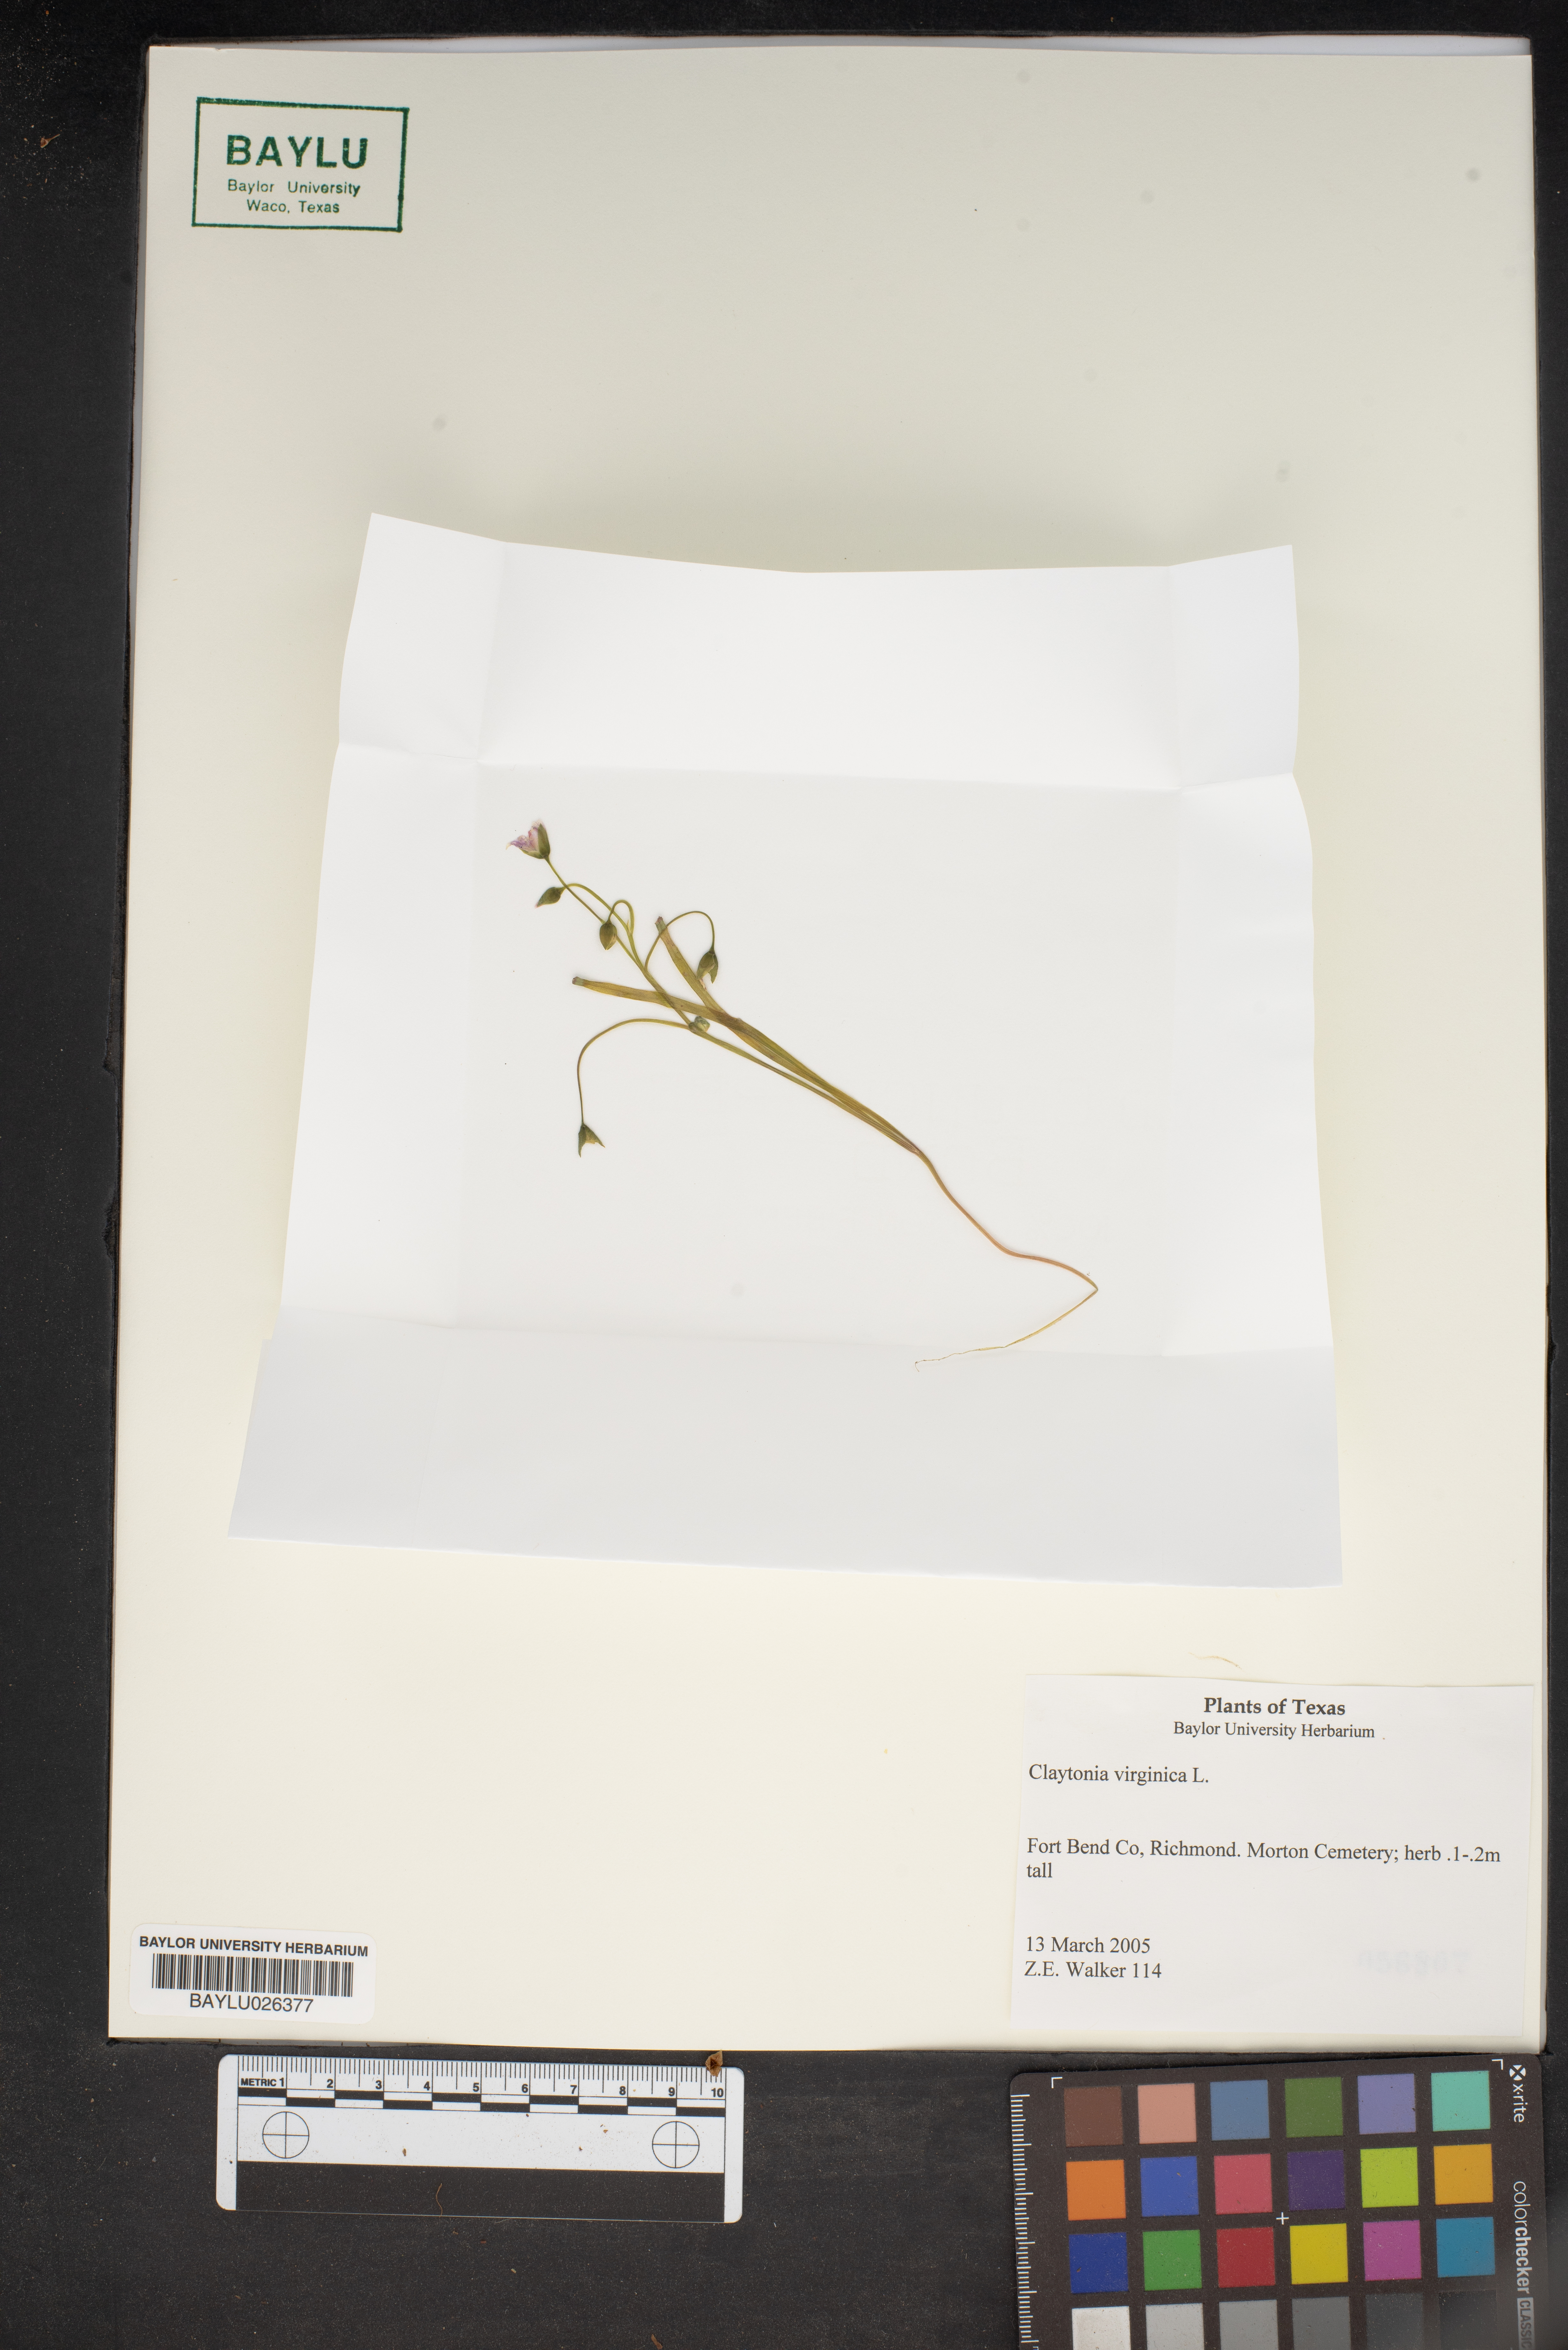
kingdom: Plantae
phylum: Tracheophyta
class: Magnoliopsida
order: Caryophyllales
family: Montiaceae
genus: Claytonia
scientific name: Claytonia virginica
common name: Virginia springbeauty
